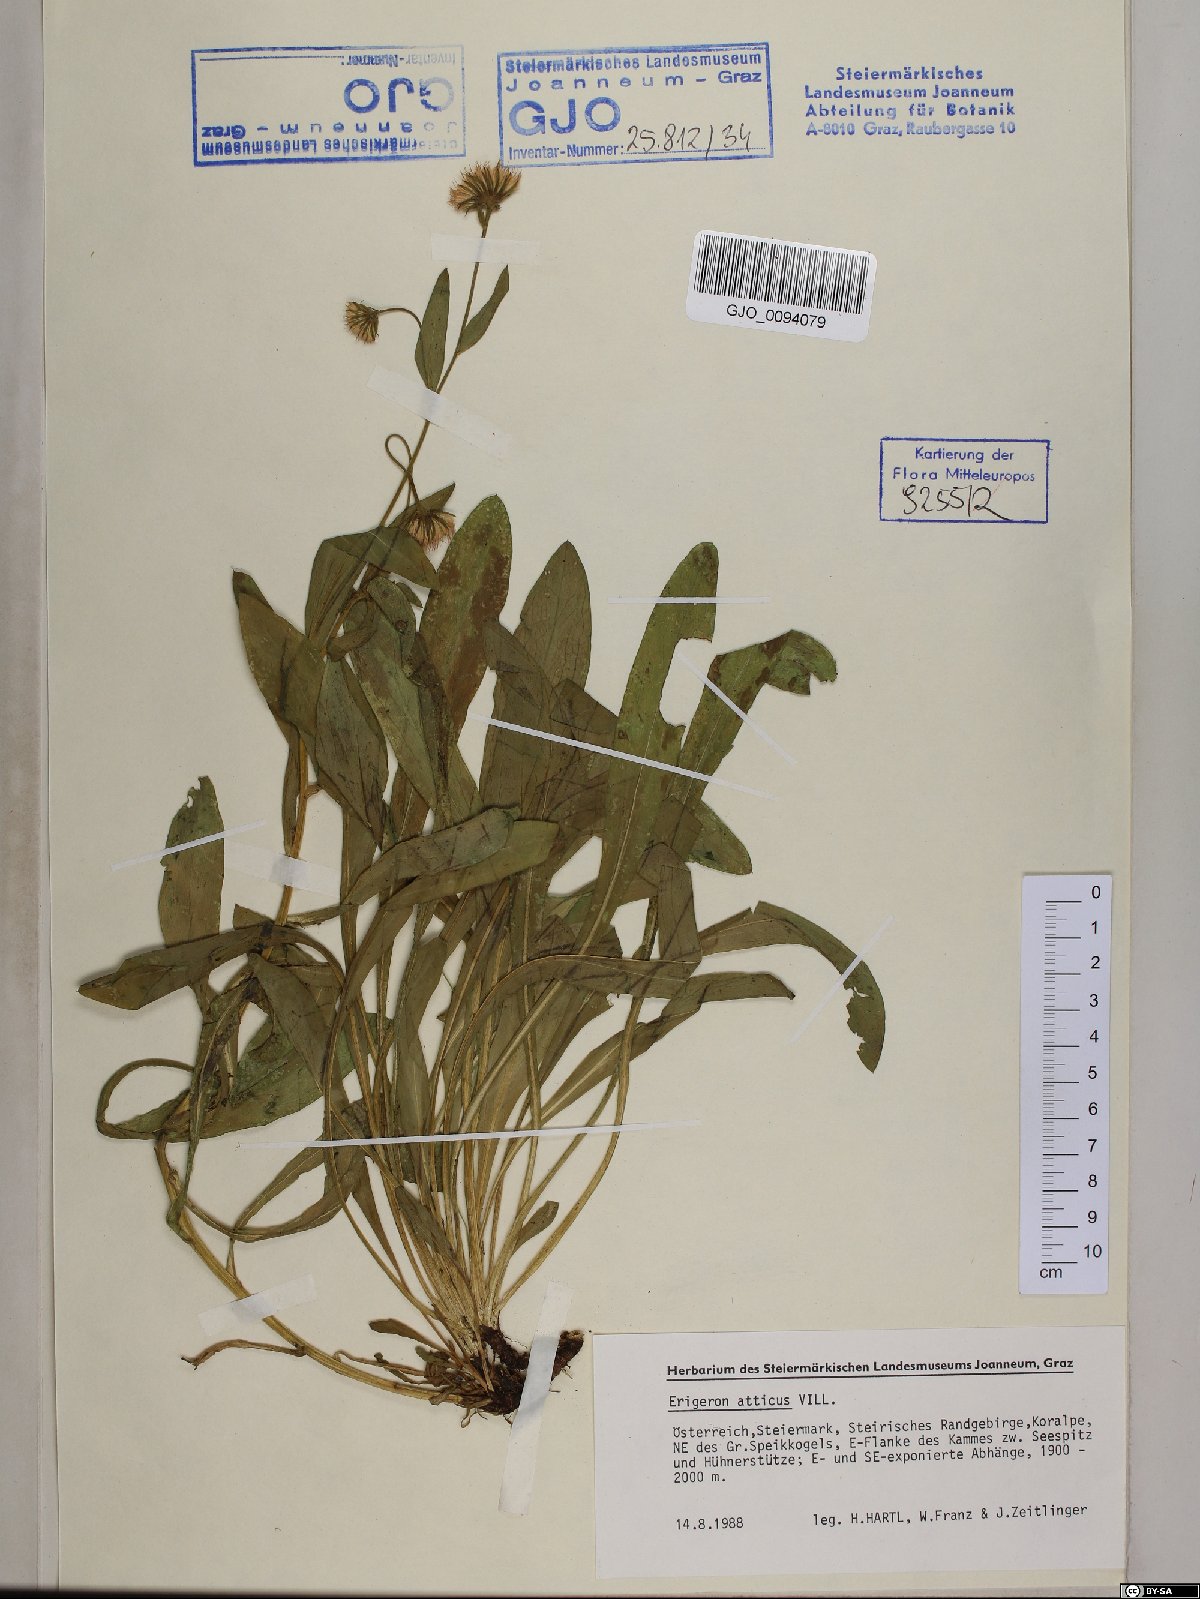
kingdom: Plantae
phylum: Tracheophyta
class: Magnoliopsida
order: Asterales
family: Asteraceae
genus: Erigeron
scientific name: Erigeron atticus
